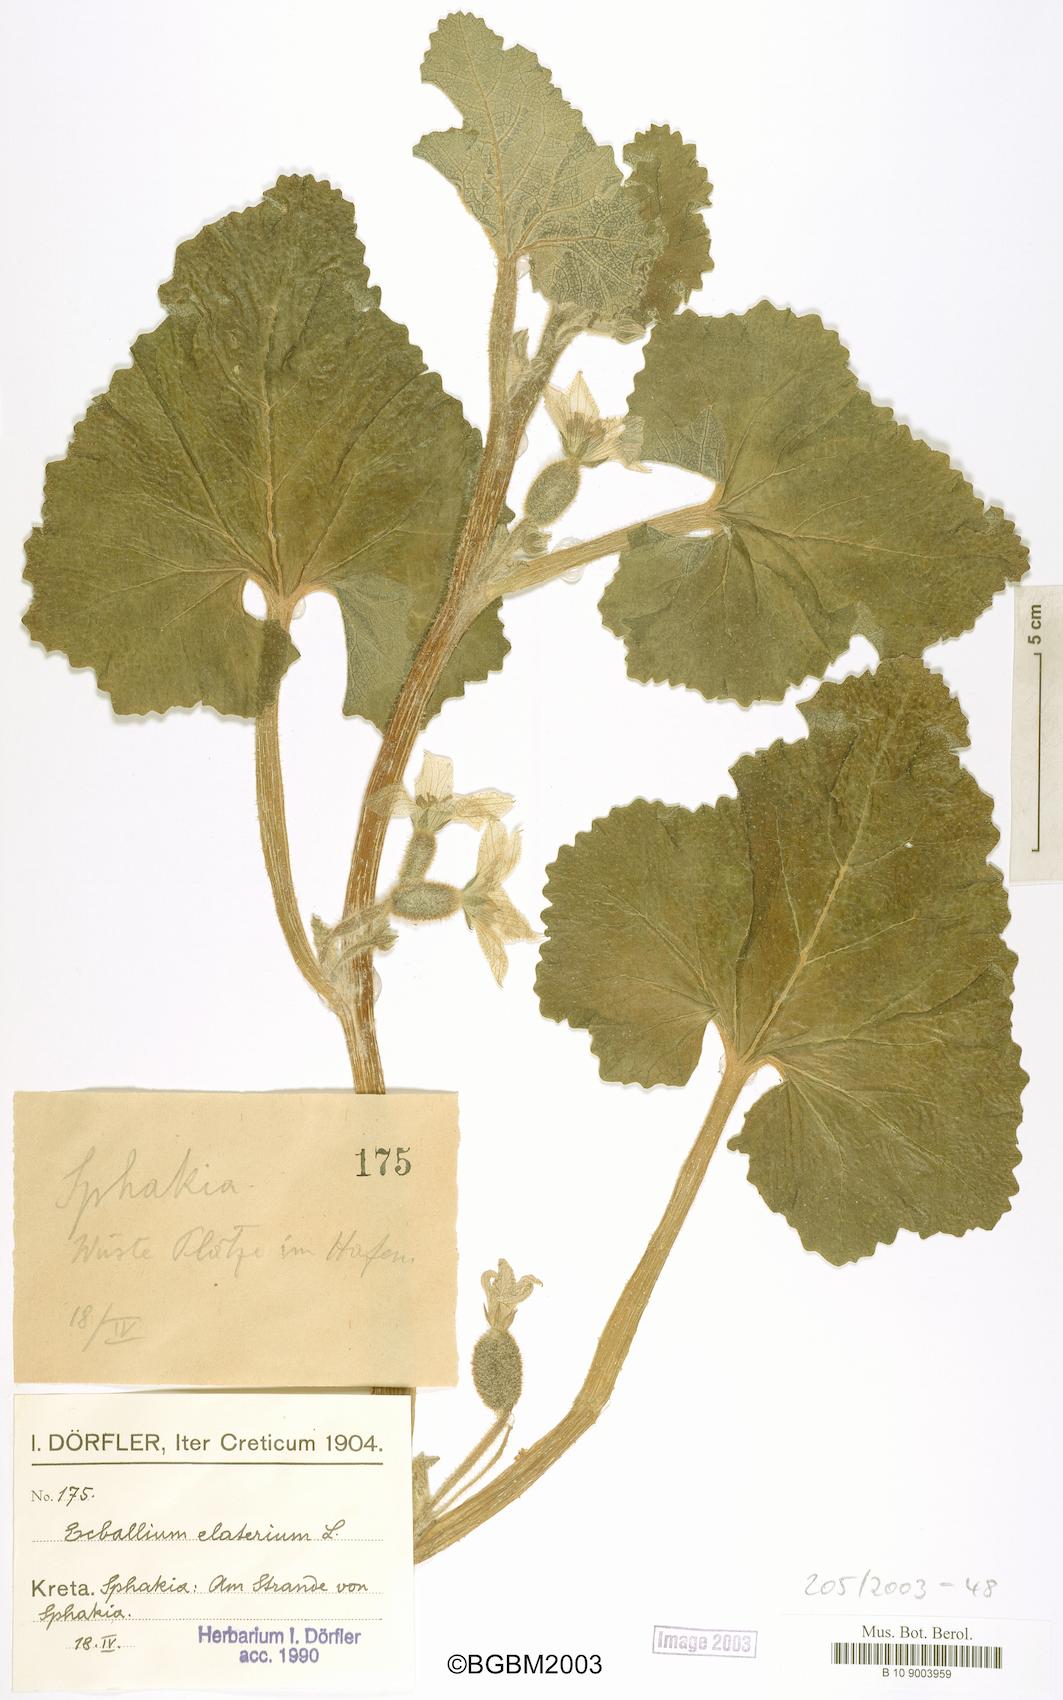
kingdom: Plantae
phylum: Tracheophyta
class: Magnoliopsida
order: Cucurbitales
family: Cucurbitaceae
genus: Ecballium
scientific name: Ecballium elaterium
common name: Squirting cucumber
